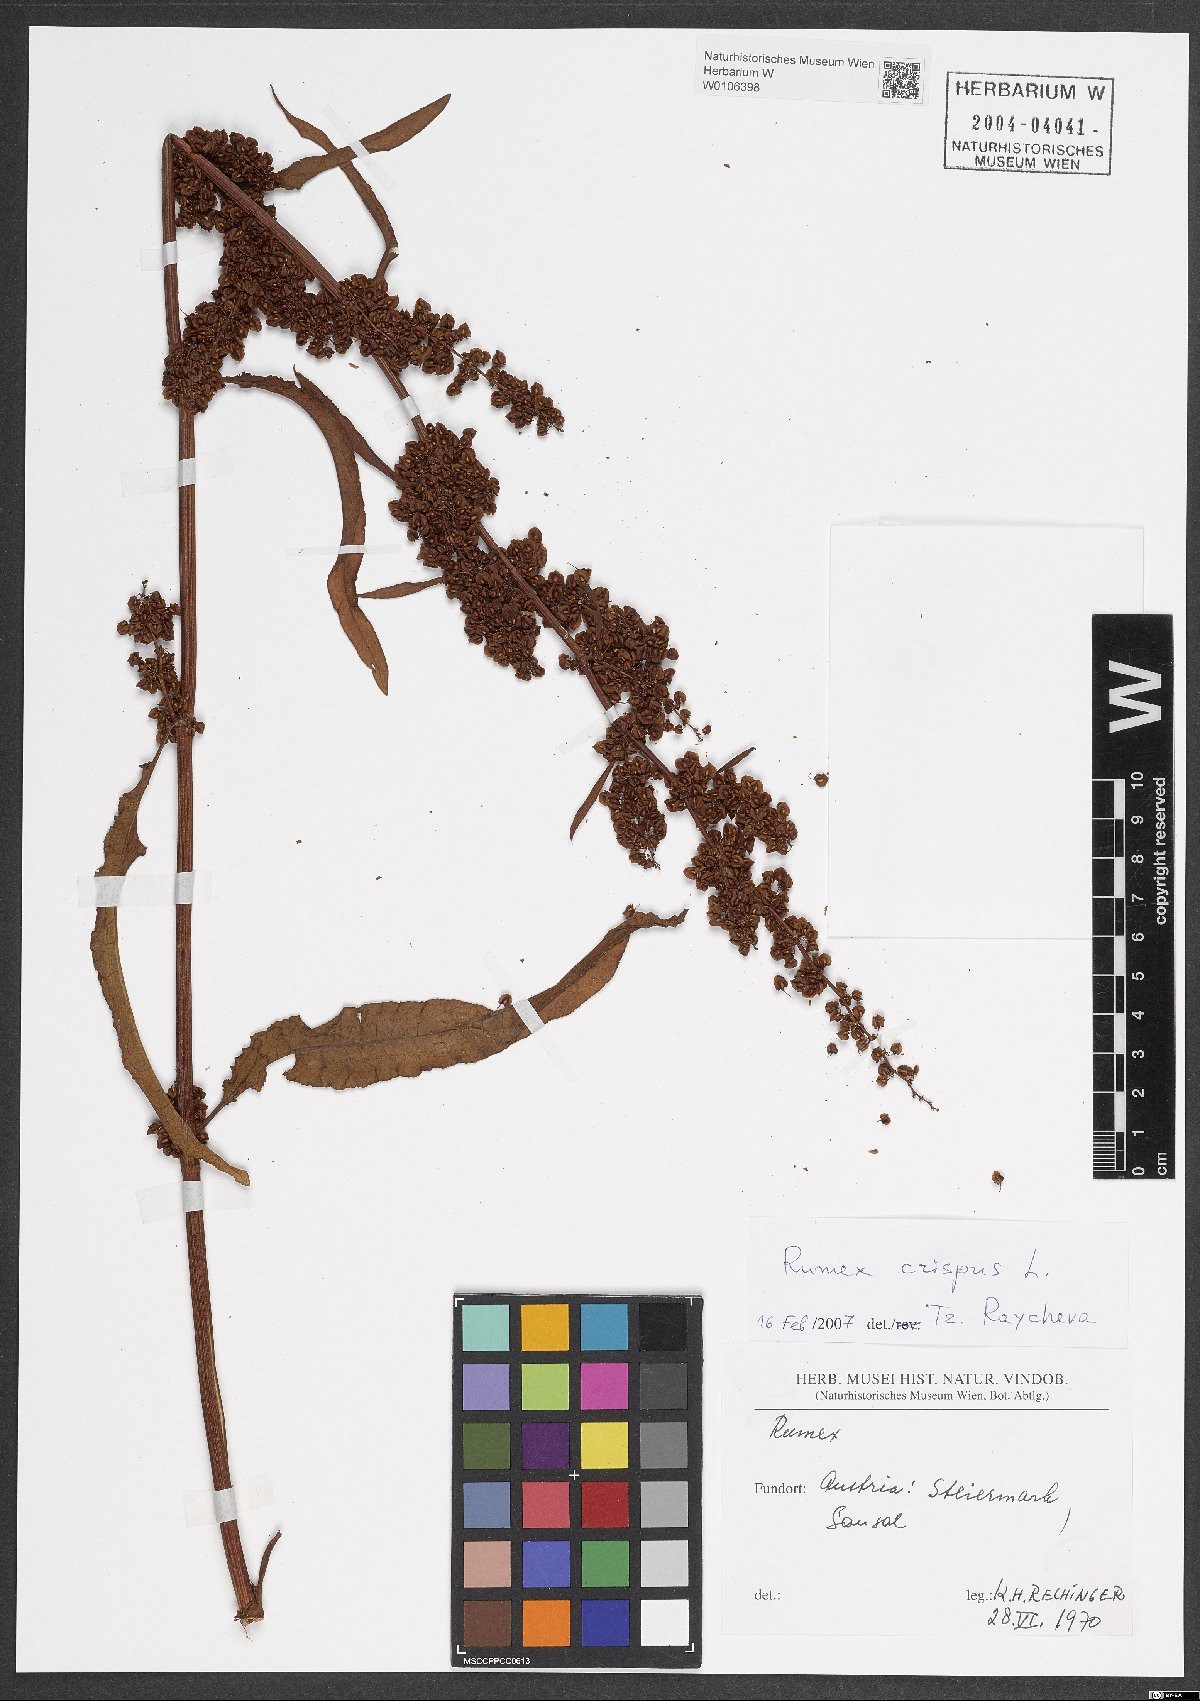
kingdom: Plantae
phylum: Tracheophyta
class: Magnoliopsida
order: Caryophyllales
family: Polygonaceae
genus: Rumex
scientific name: Rumex crispus
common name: Curled dock
